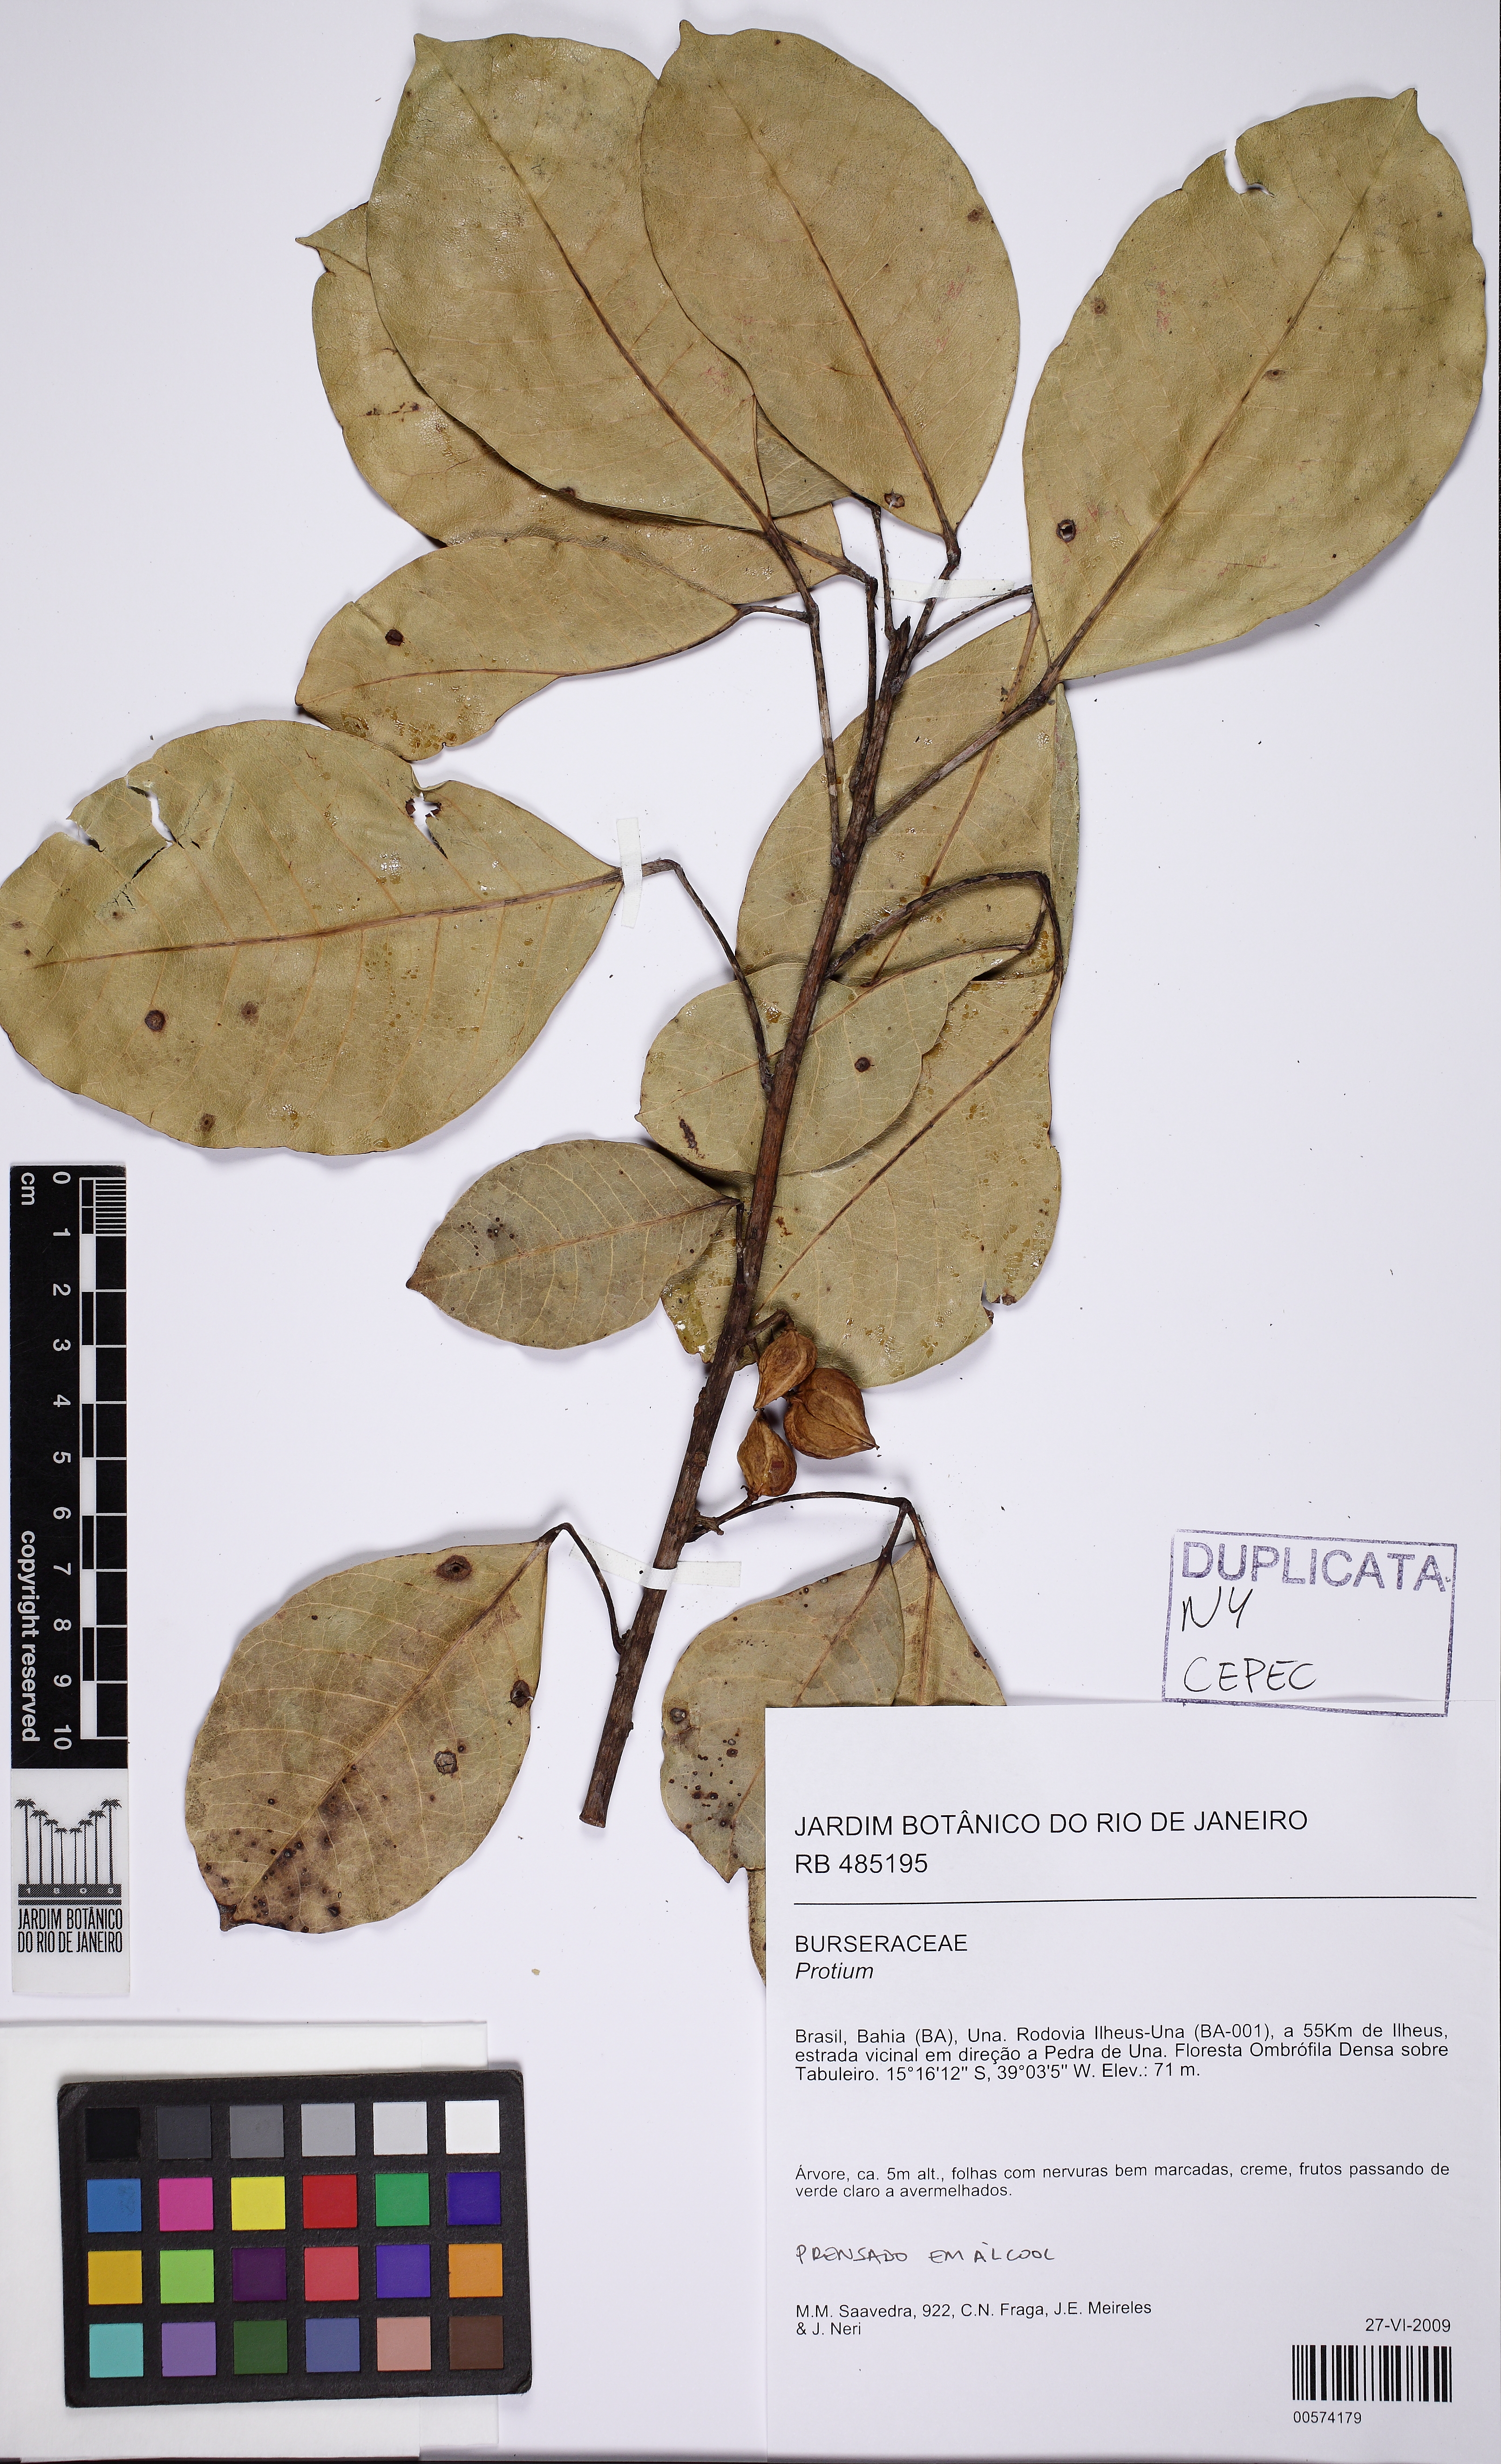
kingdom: Plantae
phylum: Tracheophyta
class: Magnoliopsida
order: Sapindales
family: Burseraceae
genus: Protium
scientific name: Protium icicariba
